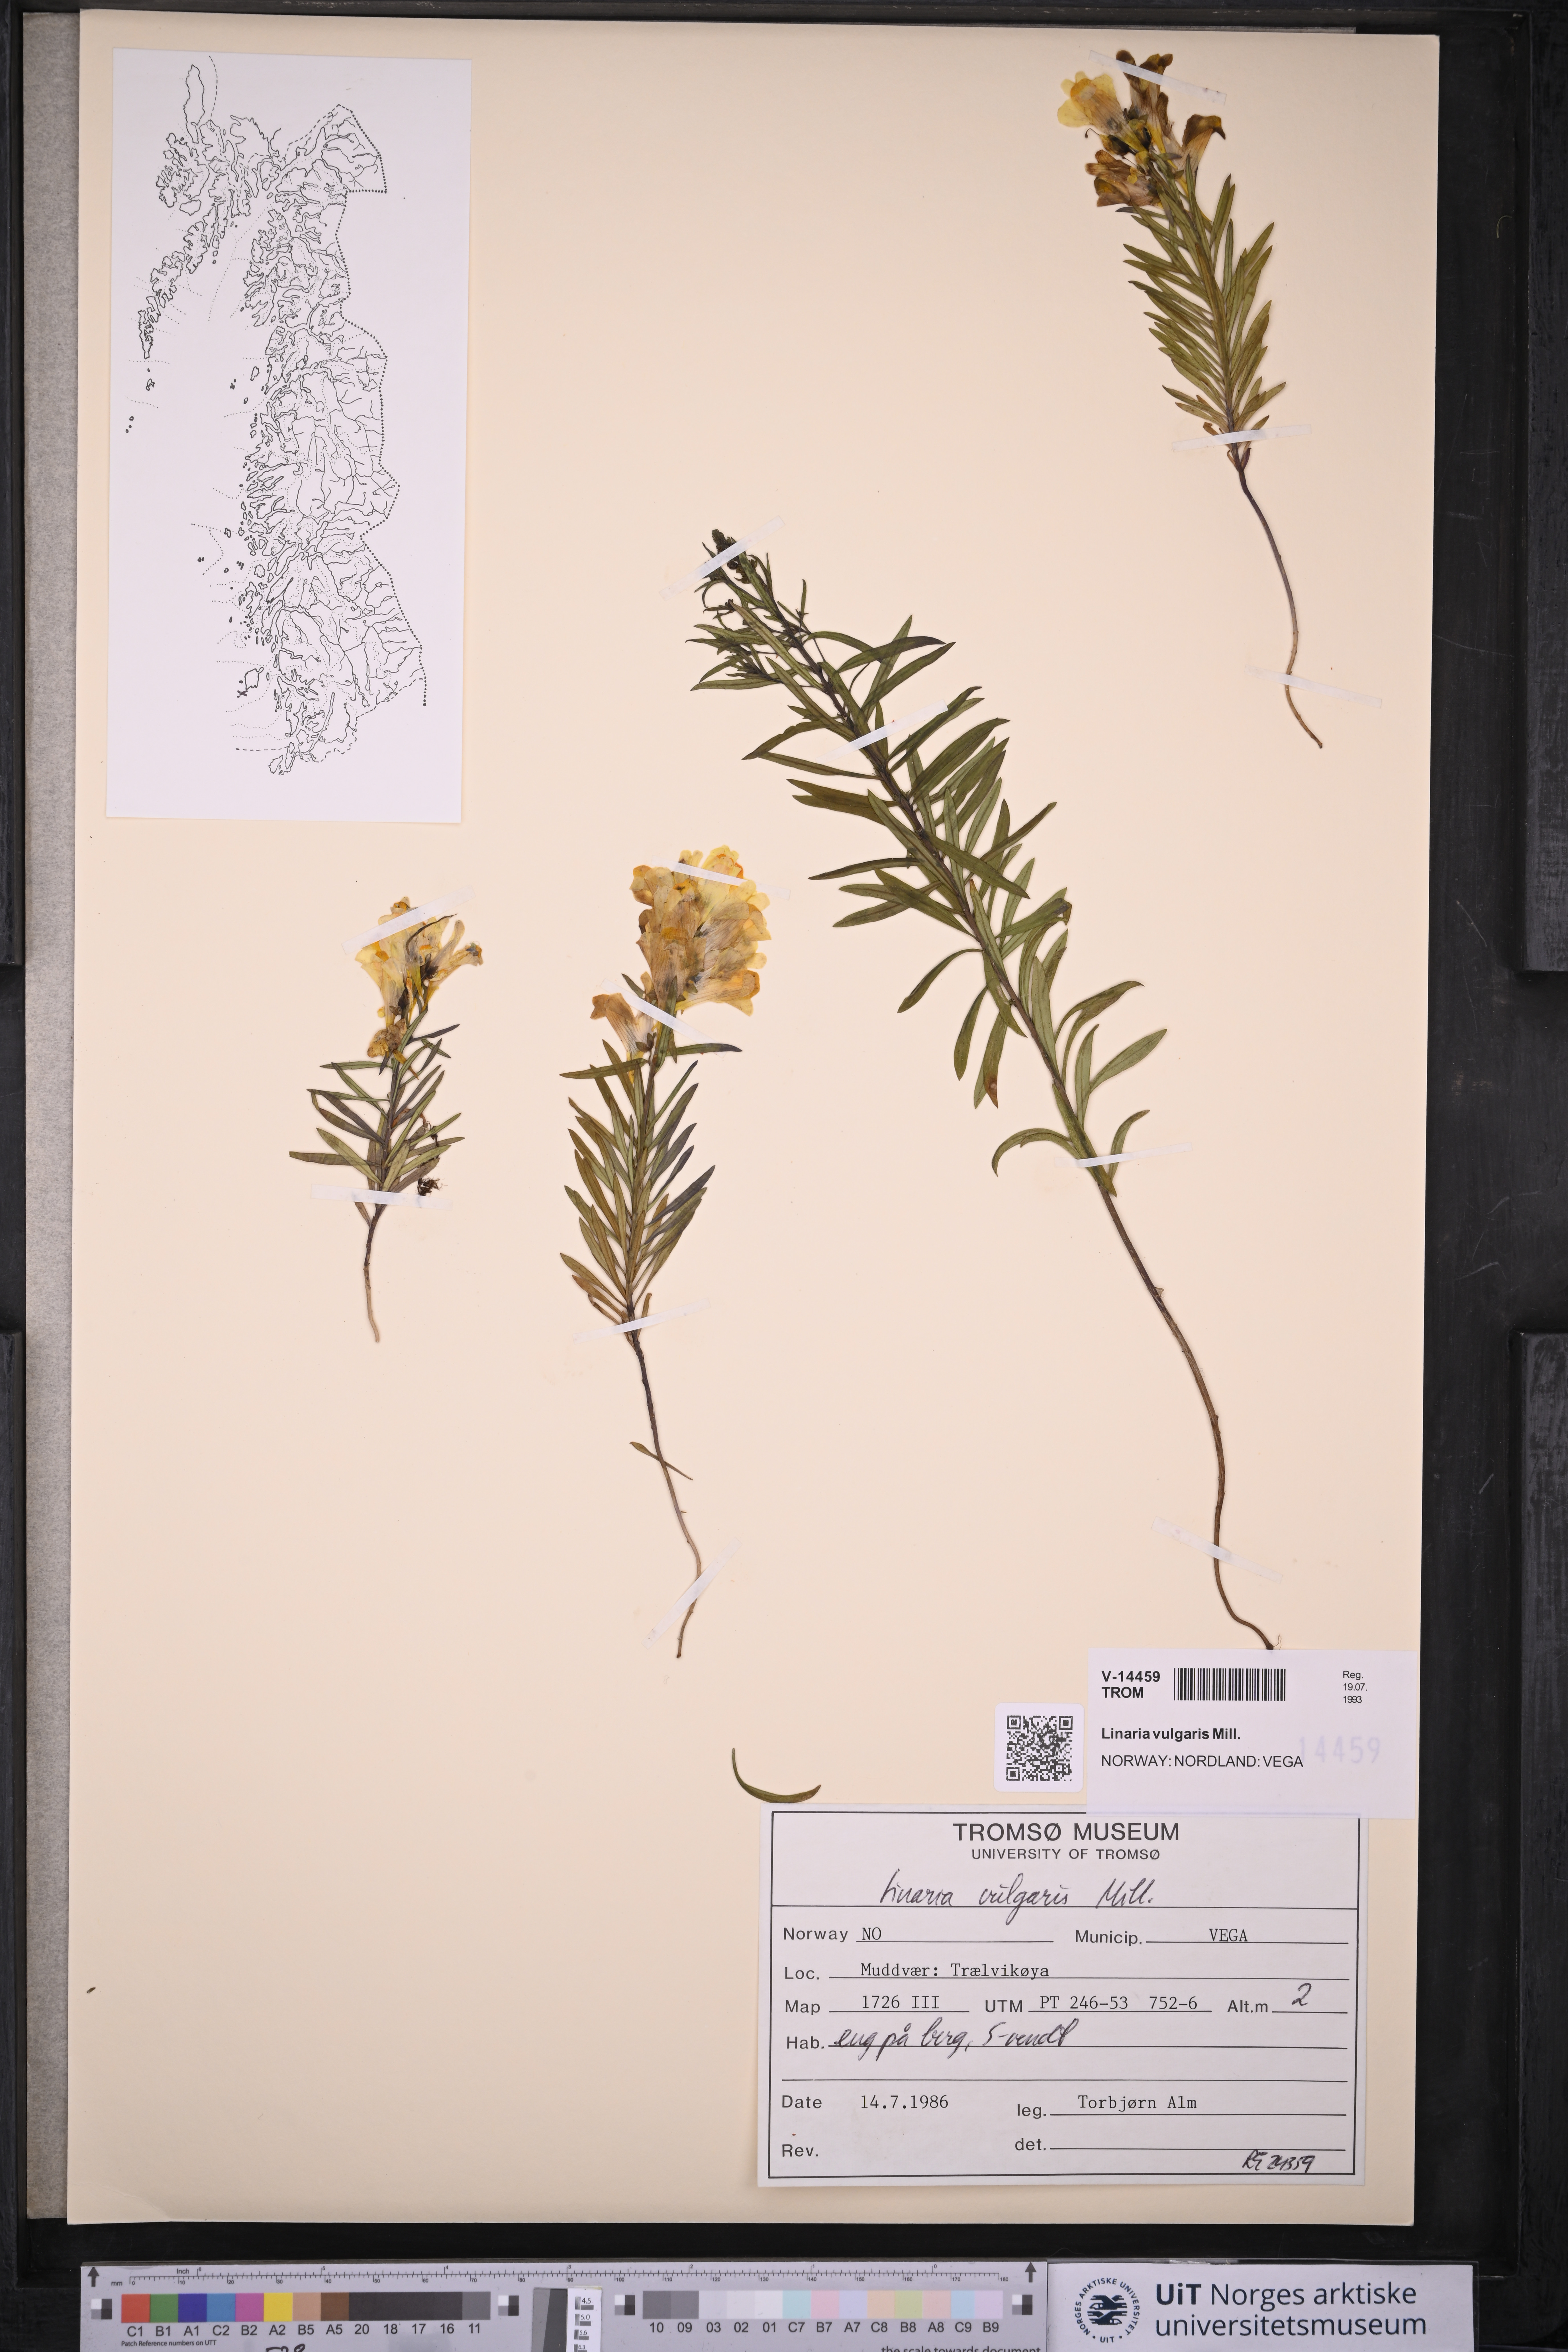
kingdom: Plantae
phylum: Tracheophyta
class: Magnoliopsida
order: Lamiales
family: Plantaginaceae
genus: Linaria
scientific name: Linaria vulgaris
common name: Butter and eggs
